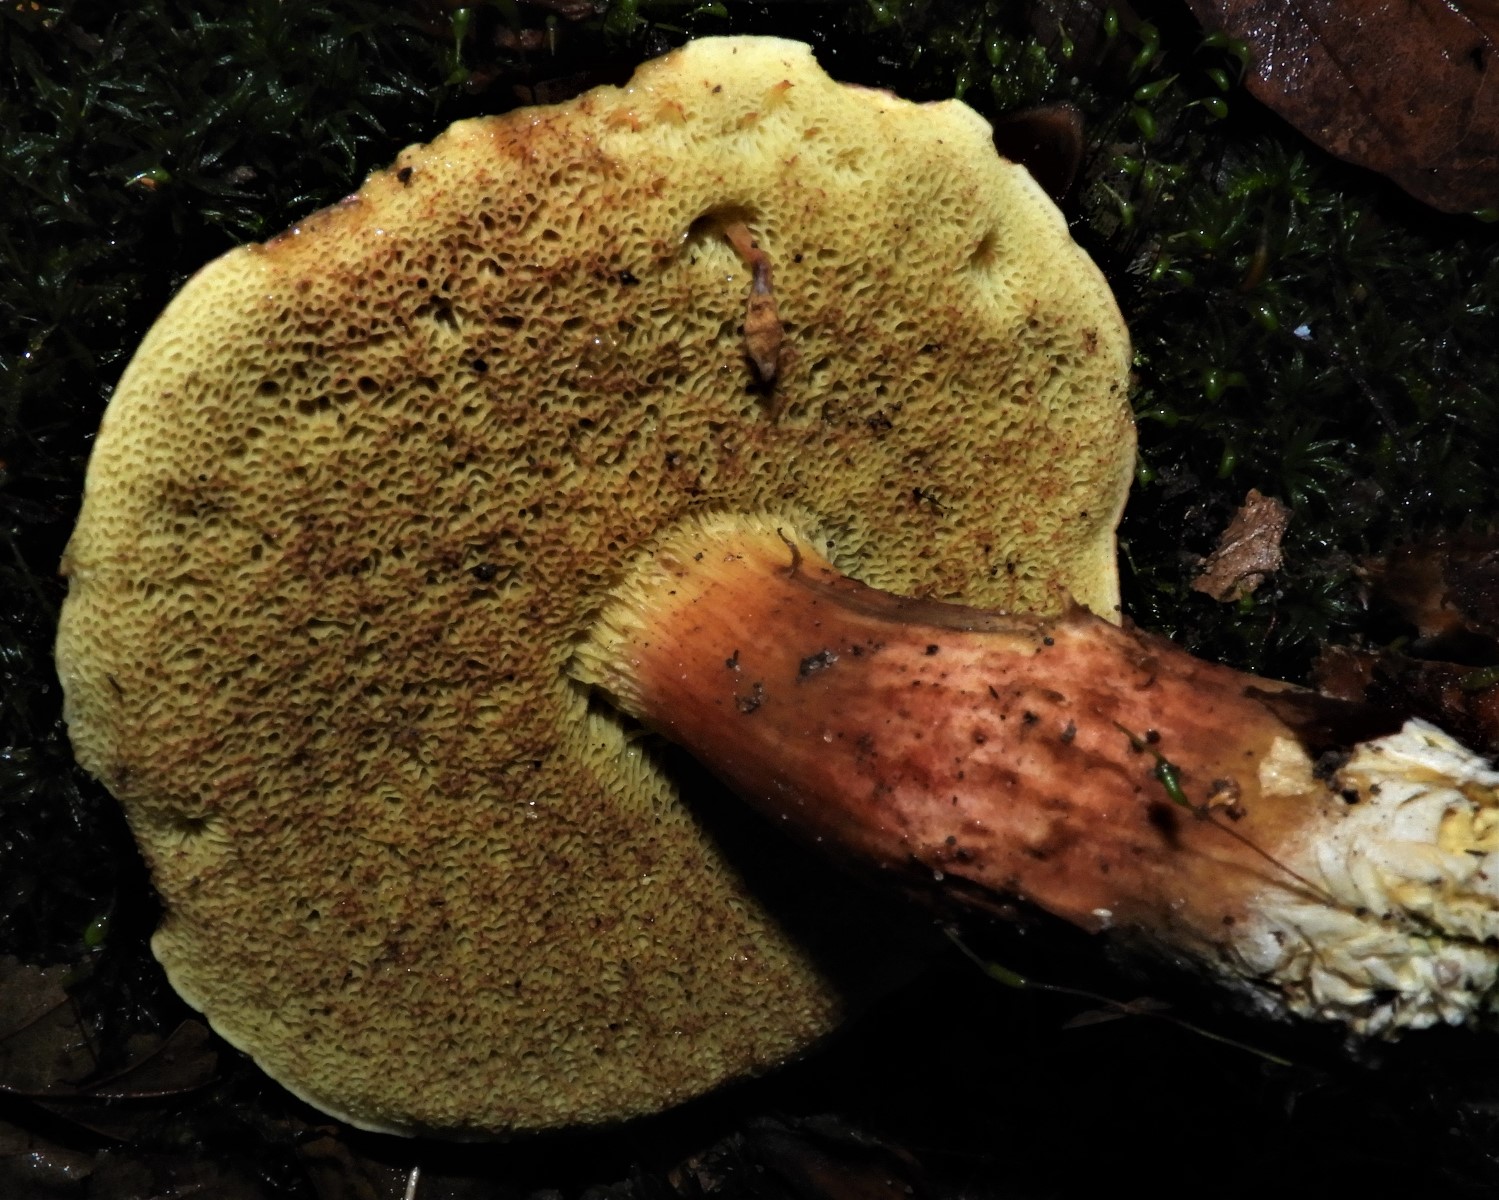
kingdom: Fungi
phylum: Basidiomycota
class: Agaricomycetes
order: Boletales
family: Boletaceae
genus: Xerocomellus
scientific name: Xerocomellus pruinatus
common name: dugget rørhat
